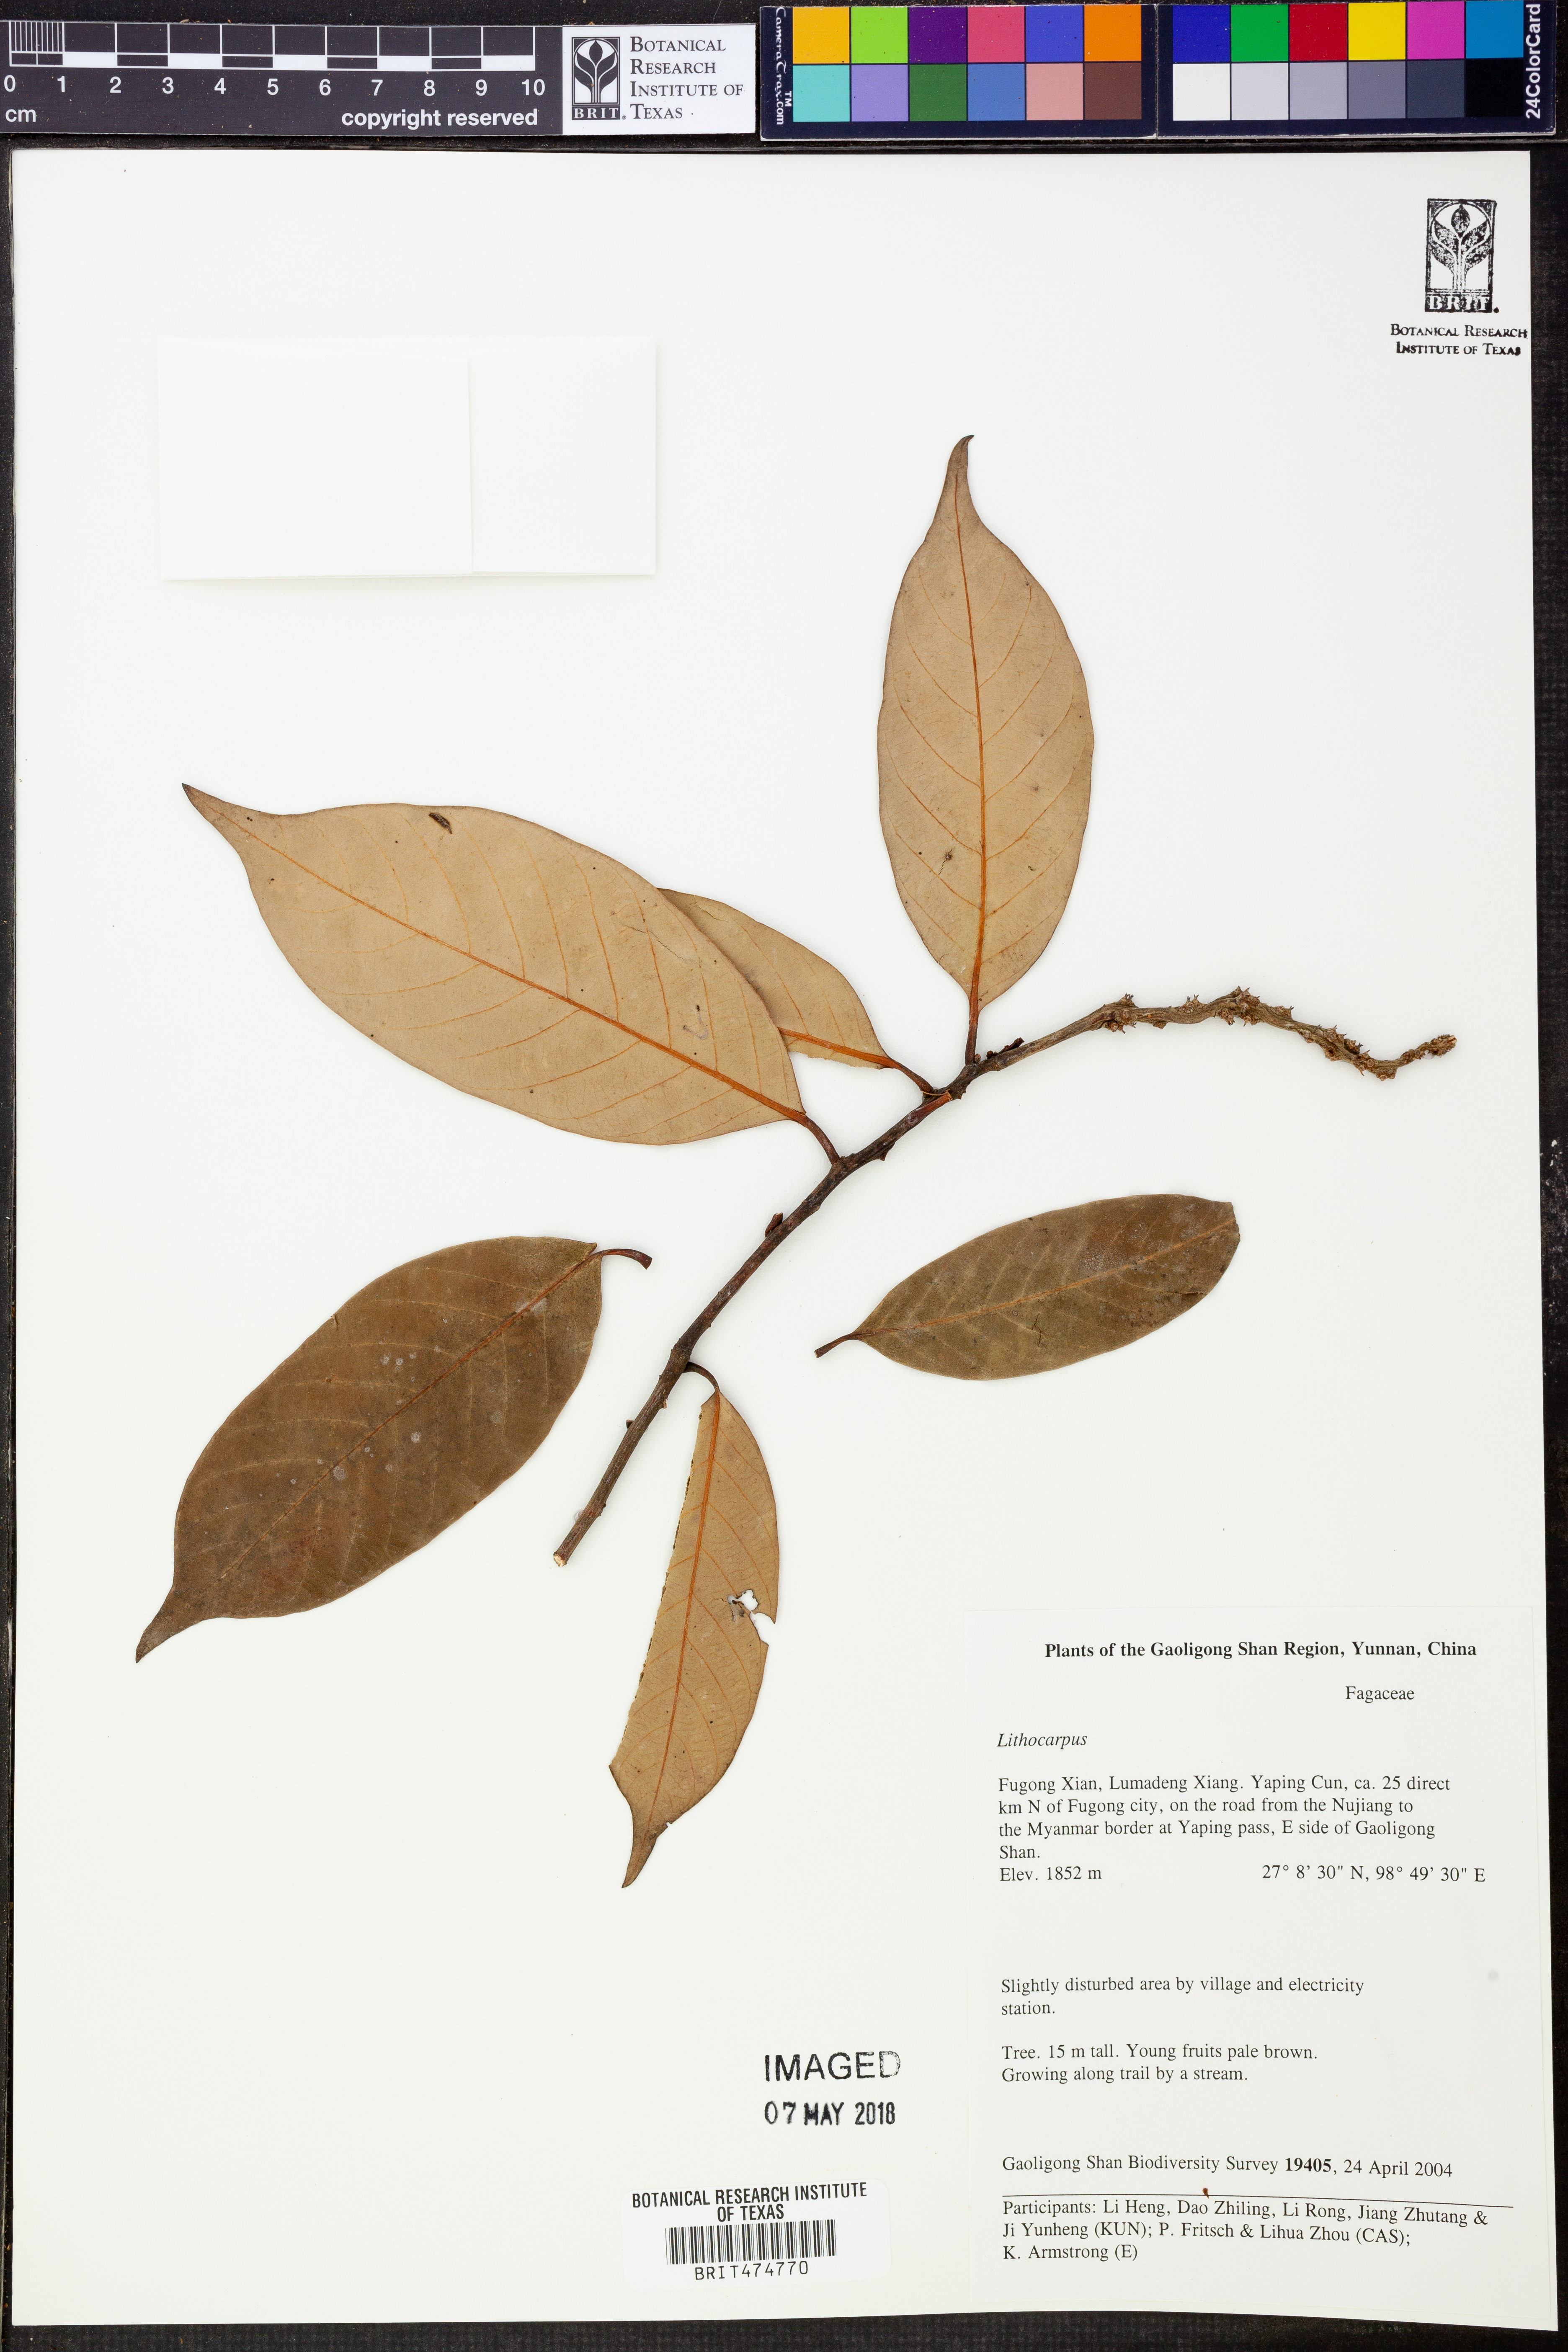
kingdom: Plantae
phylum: Tracheophyta
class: Magnoliopsida
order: Fagales
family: Fagaceae
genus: Lithocarpus
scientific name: Lithocarpus
